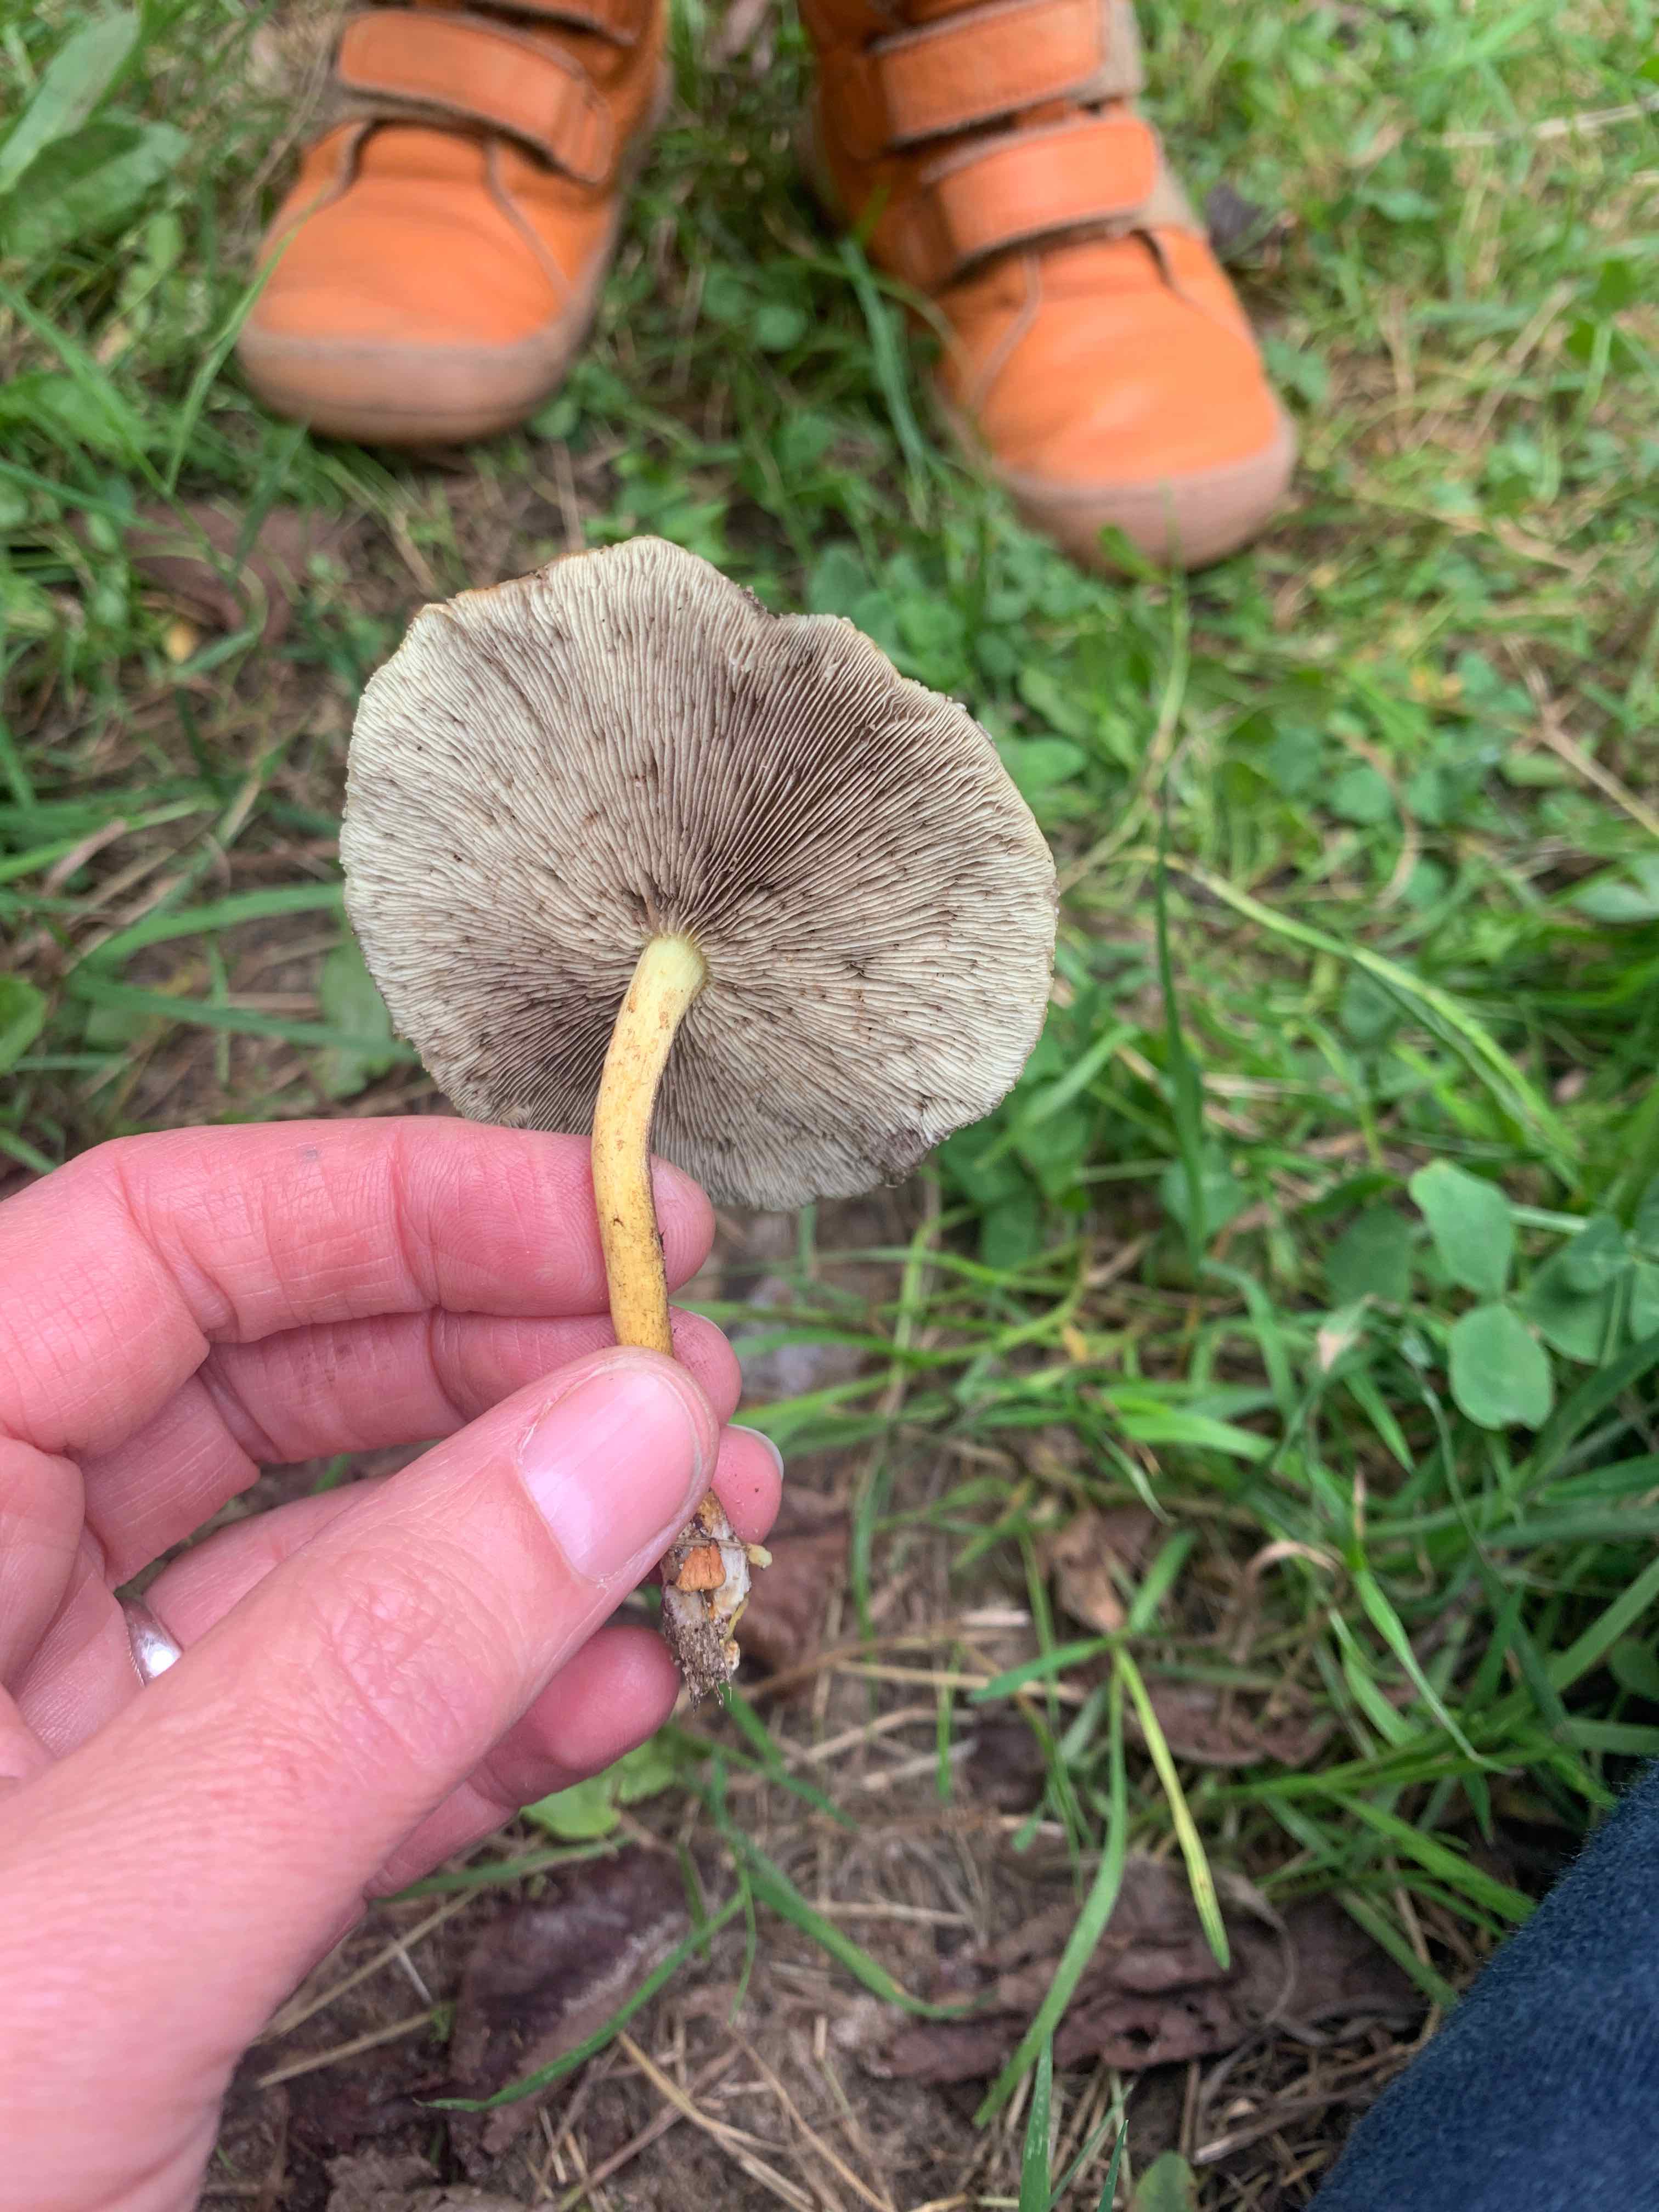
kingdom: Fungi
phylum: Basidiomycota
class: Agaricomycetes
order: Agaricales
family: Strophariaceae
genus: Hypholoma
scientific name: Hypholoma fasciculare
